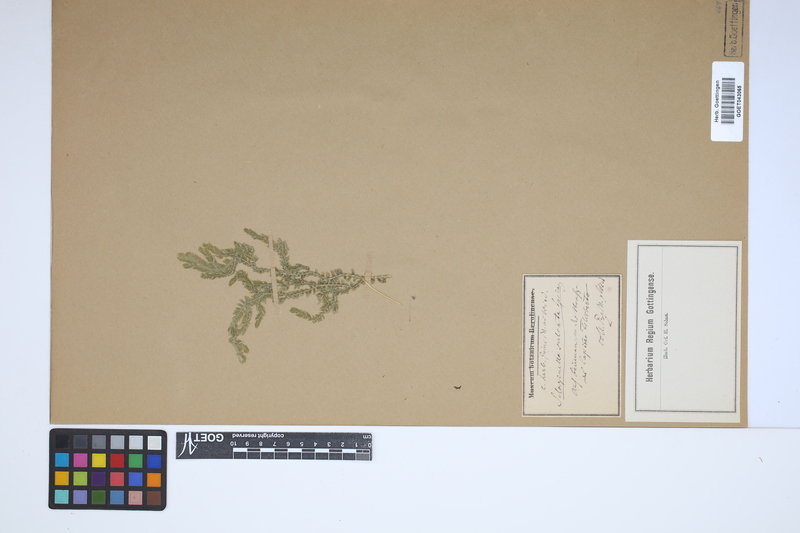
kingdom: Plantae
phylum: Tracheophyta
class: Lycopodiopsida
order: Selaginellales
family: Selaginellaceae
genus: Selaginella
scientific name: Selaginella sulcata
